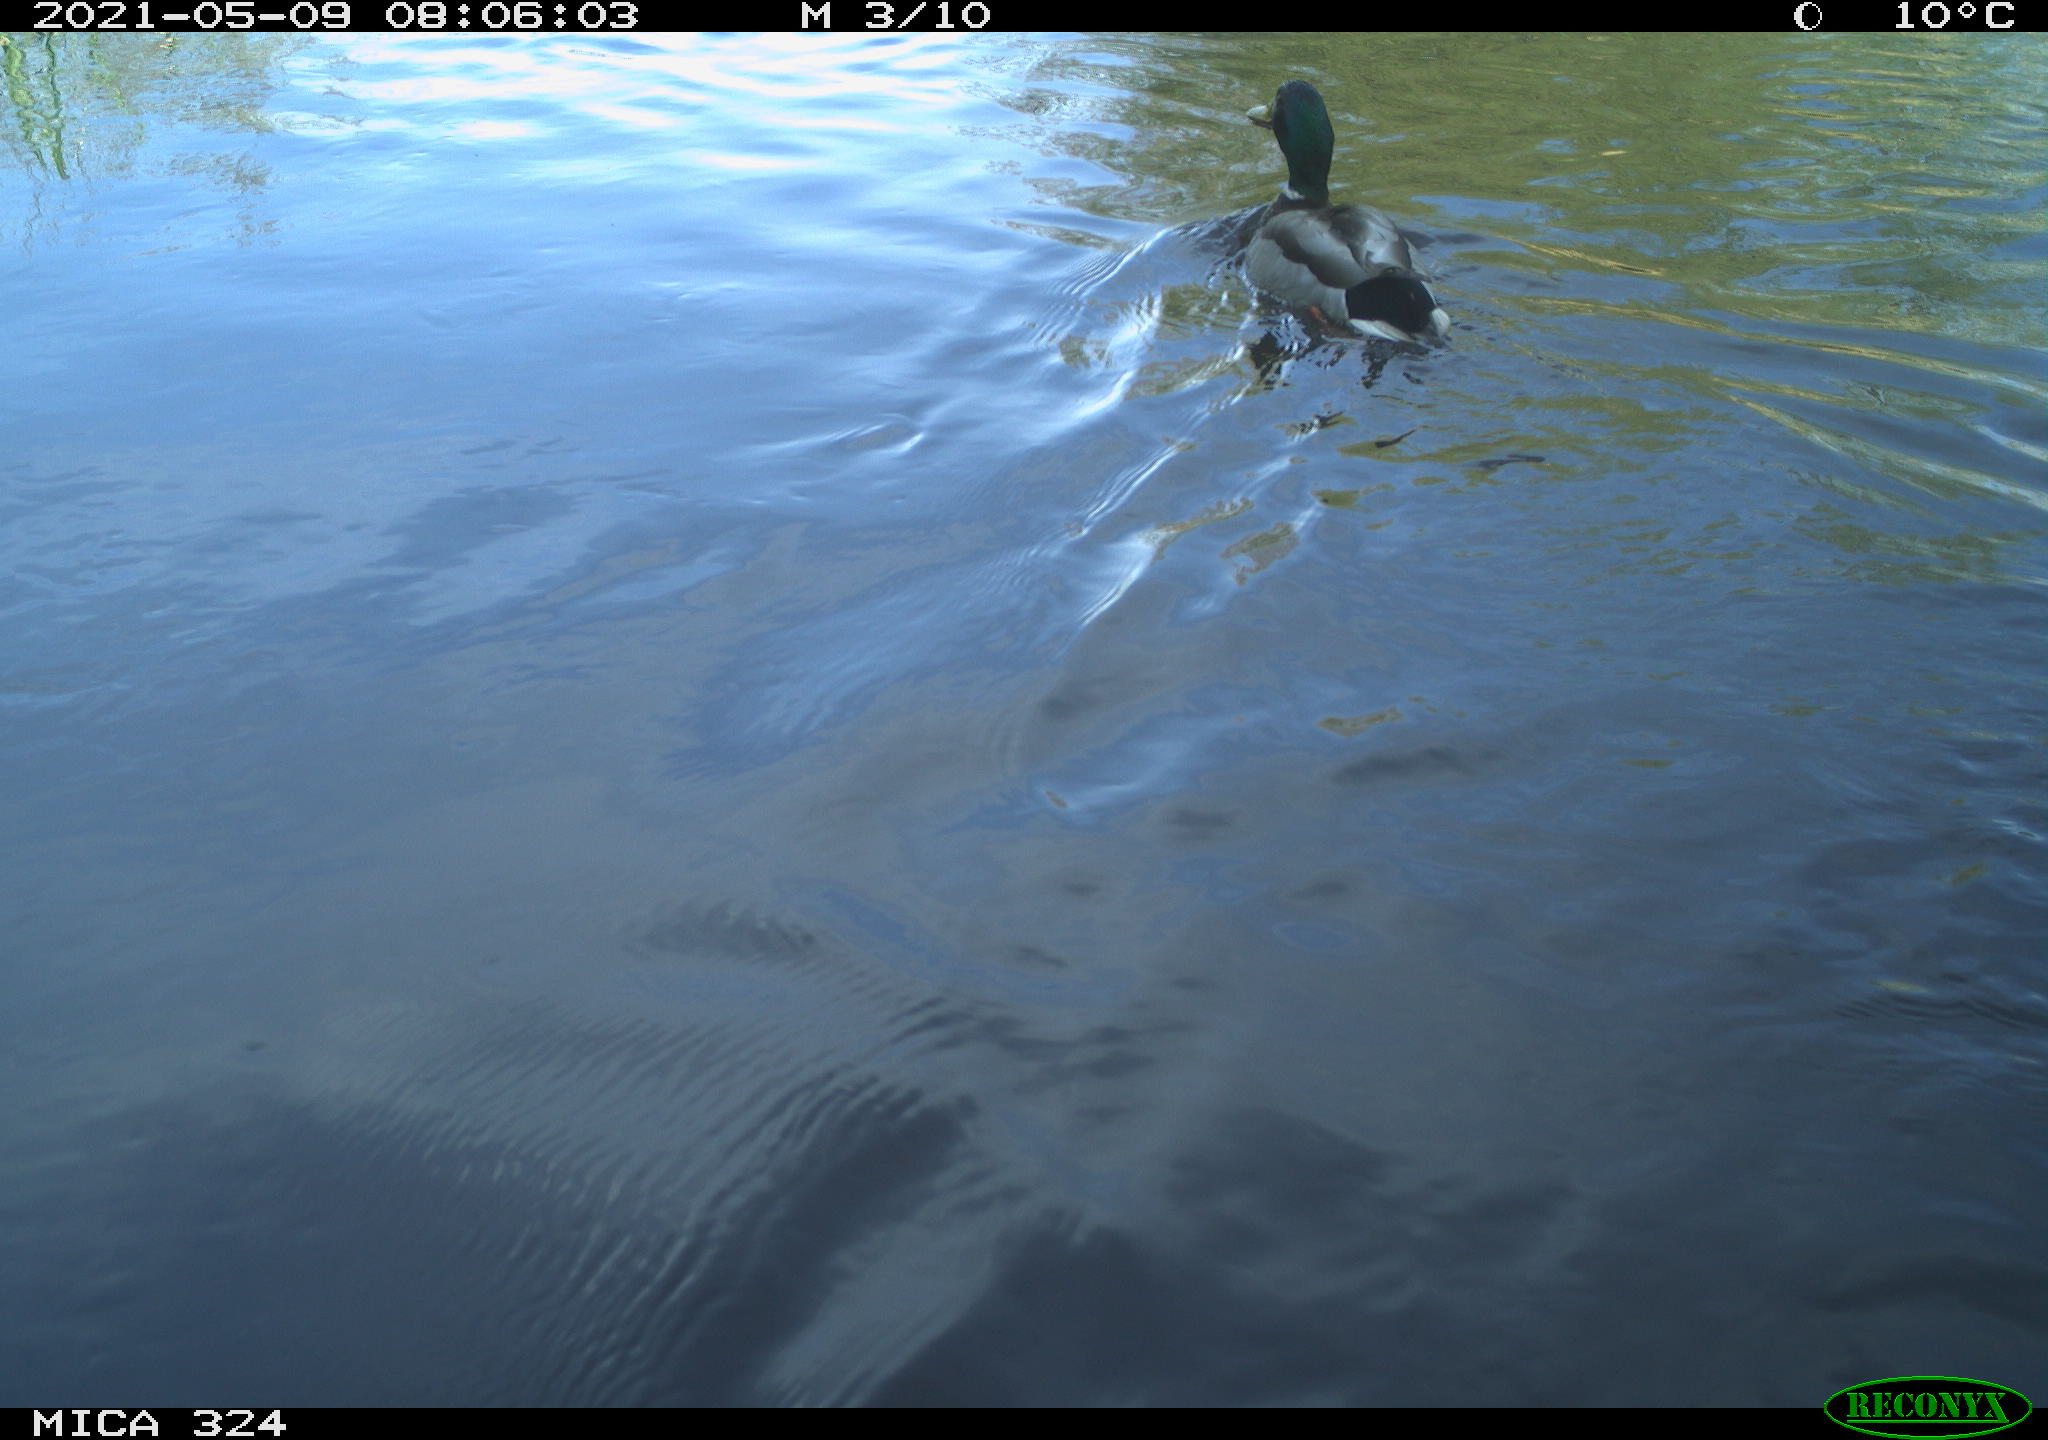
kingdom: Animalia
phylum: Chordata
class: Aves
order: Anseriformes
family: Anatidae
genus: Anas
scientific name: Anas platyrhynchos
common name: Mallard
